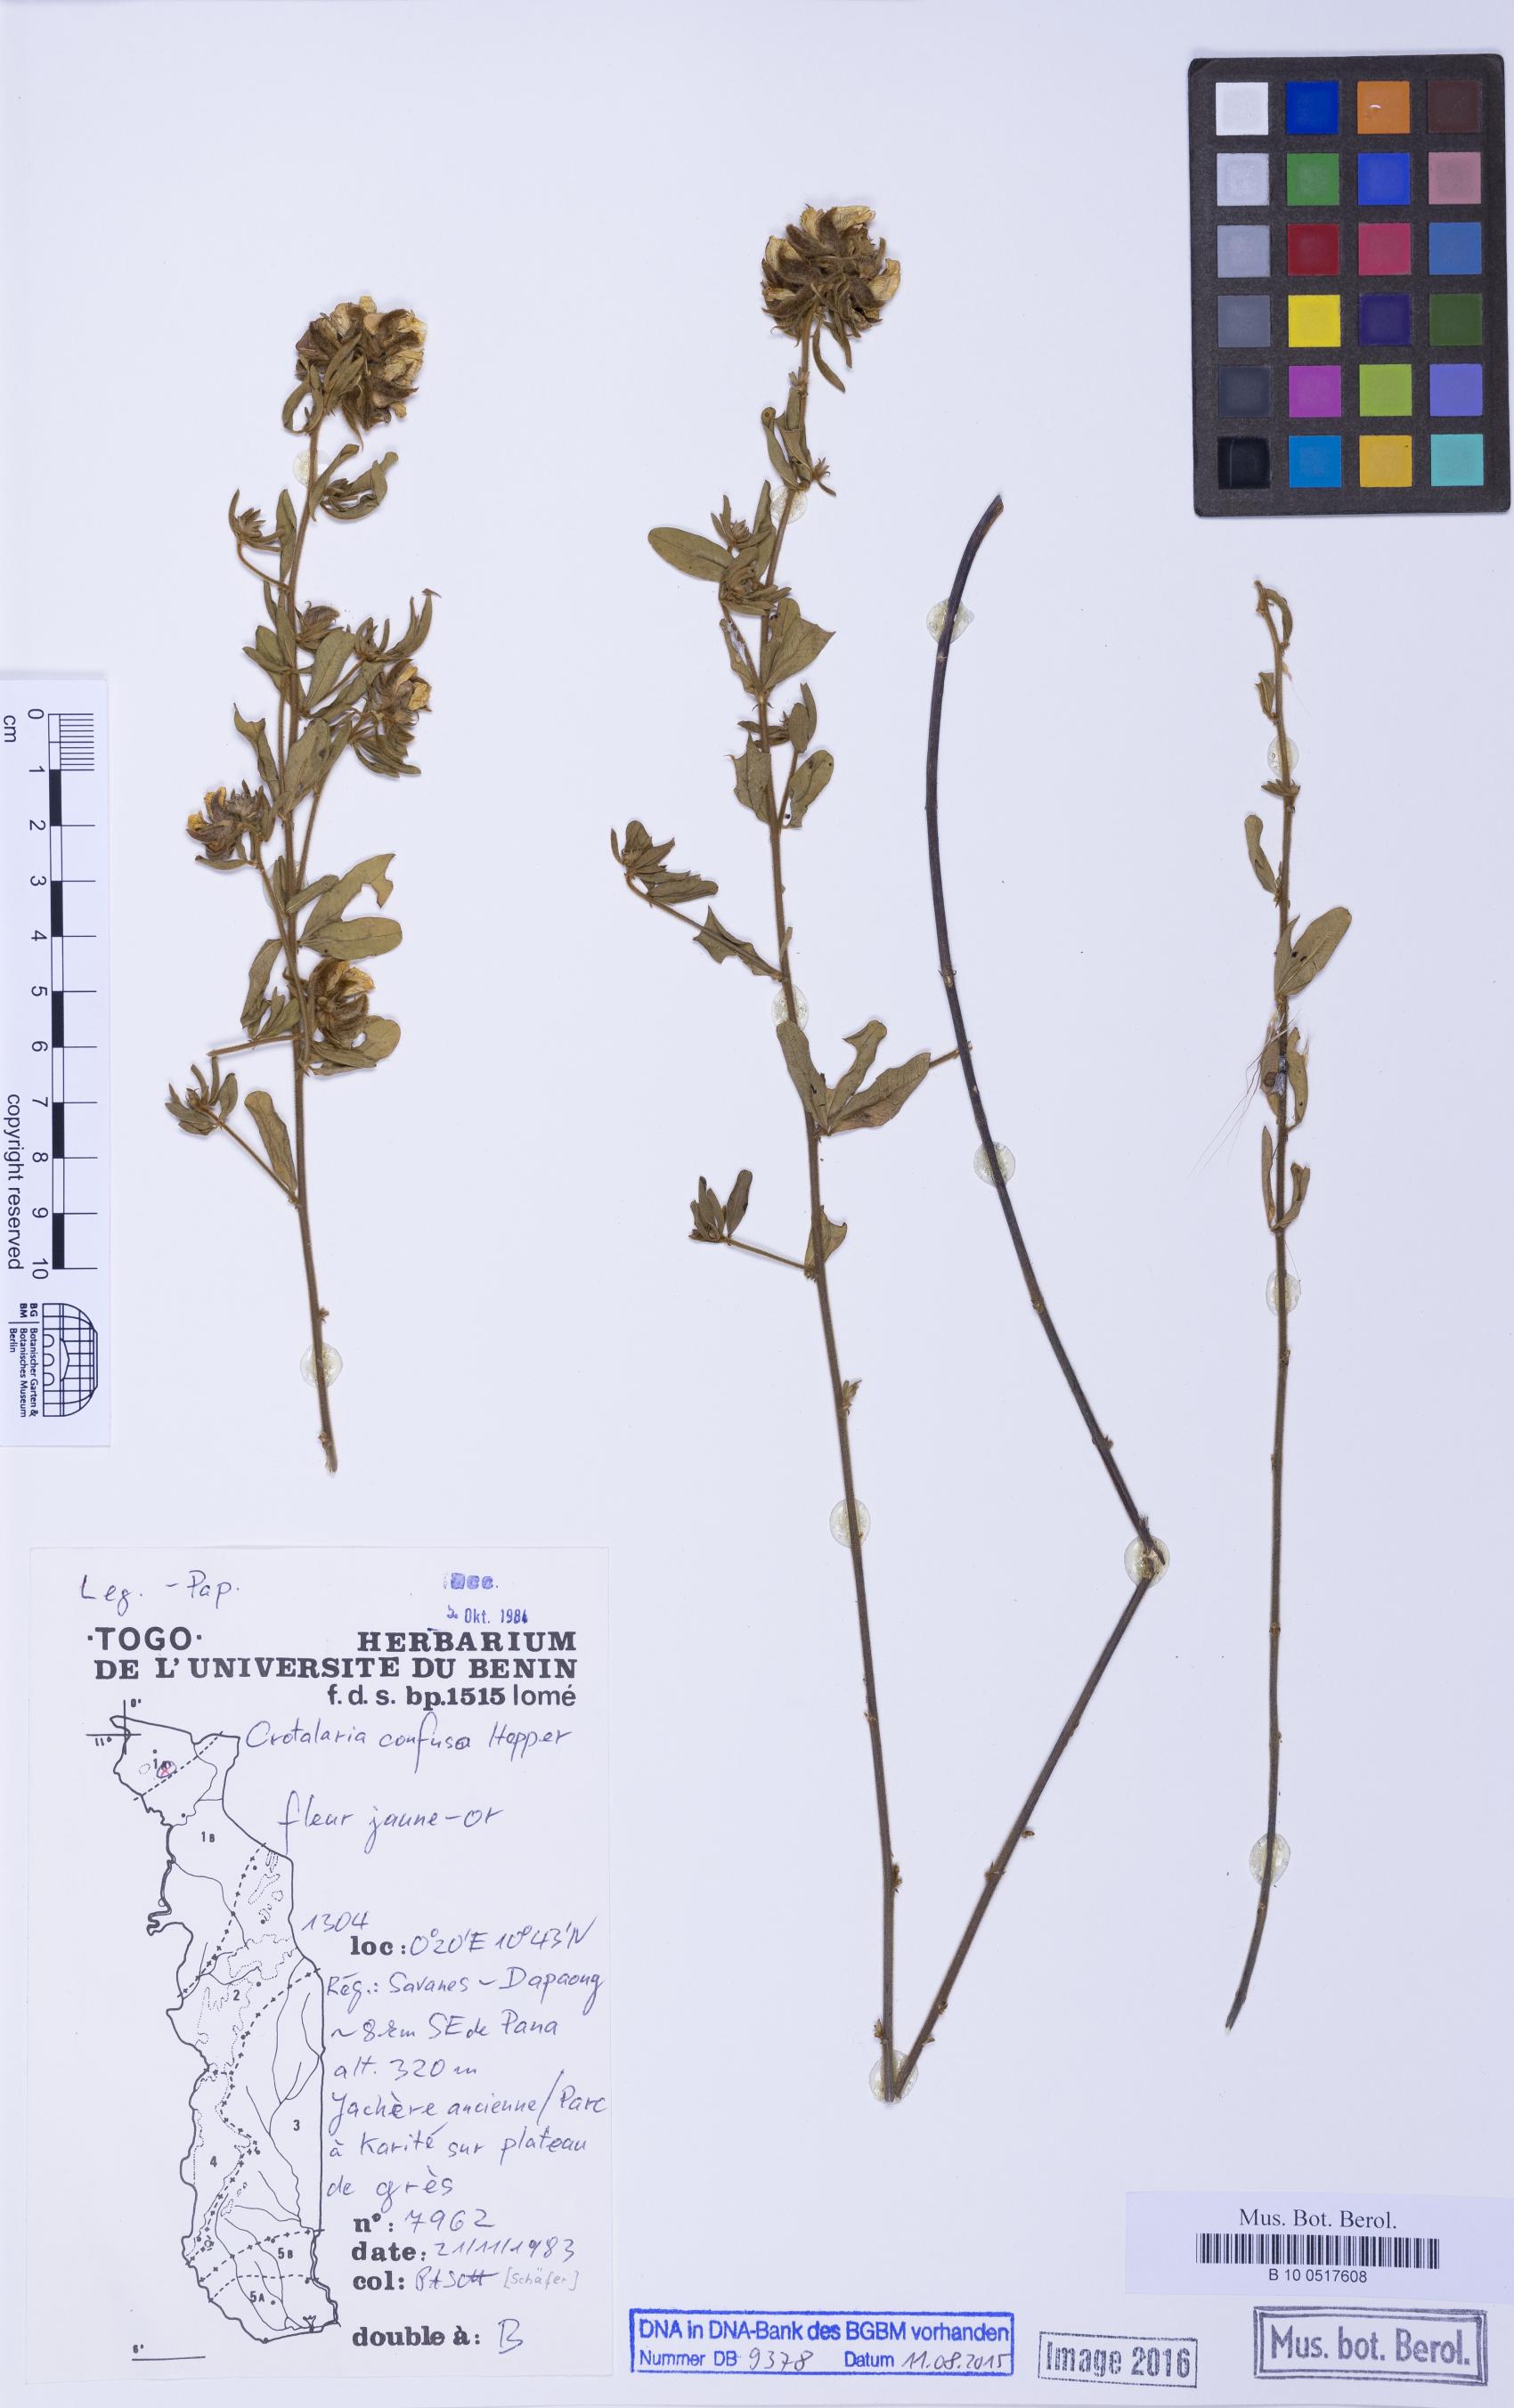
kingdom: Plantae
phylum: Tracheophyta
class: Magnoliopsida
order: Fabales
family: Fabaceae
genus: Crotalaria
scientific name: Crotalaria confusa
